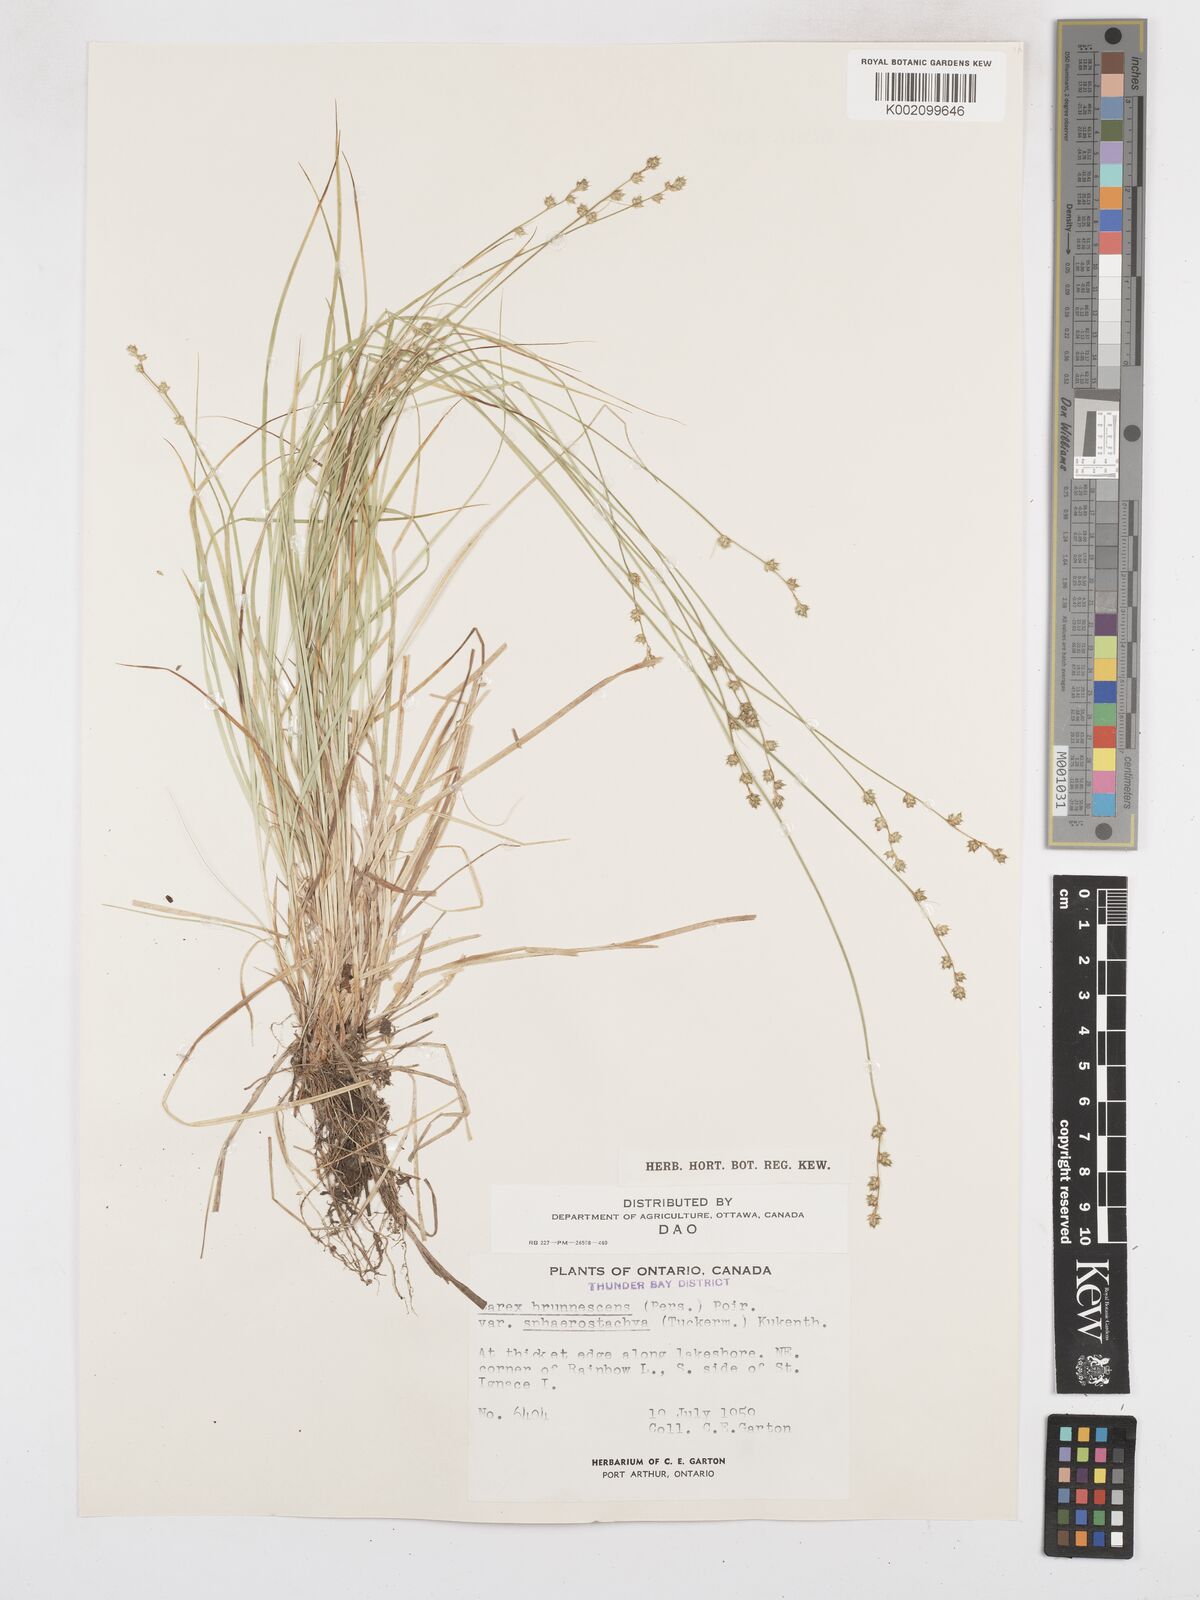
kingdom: Plantae
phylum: Tracheophyta
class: Liliopsida
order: Poales
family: Cyperaceae
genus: Carex
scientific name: Carex brunnescens
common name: Brown sedge
